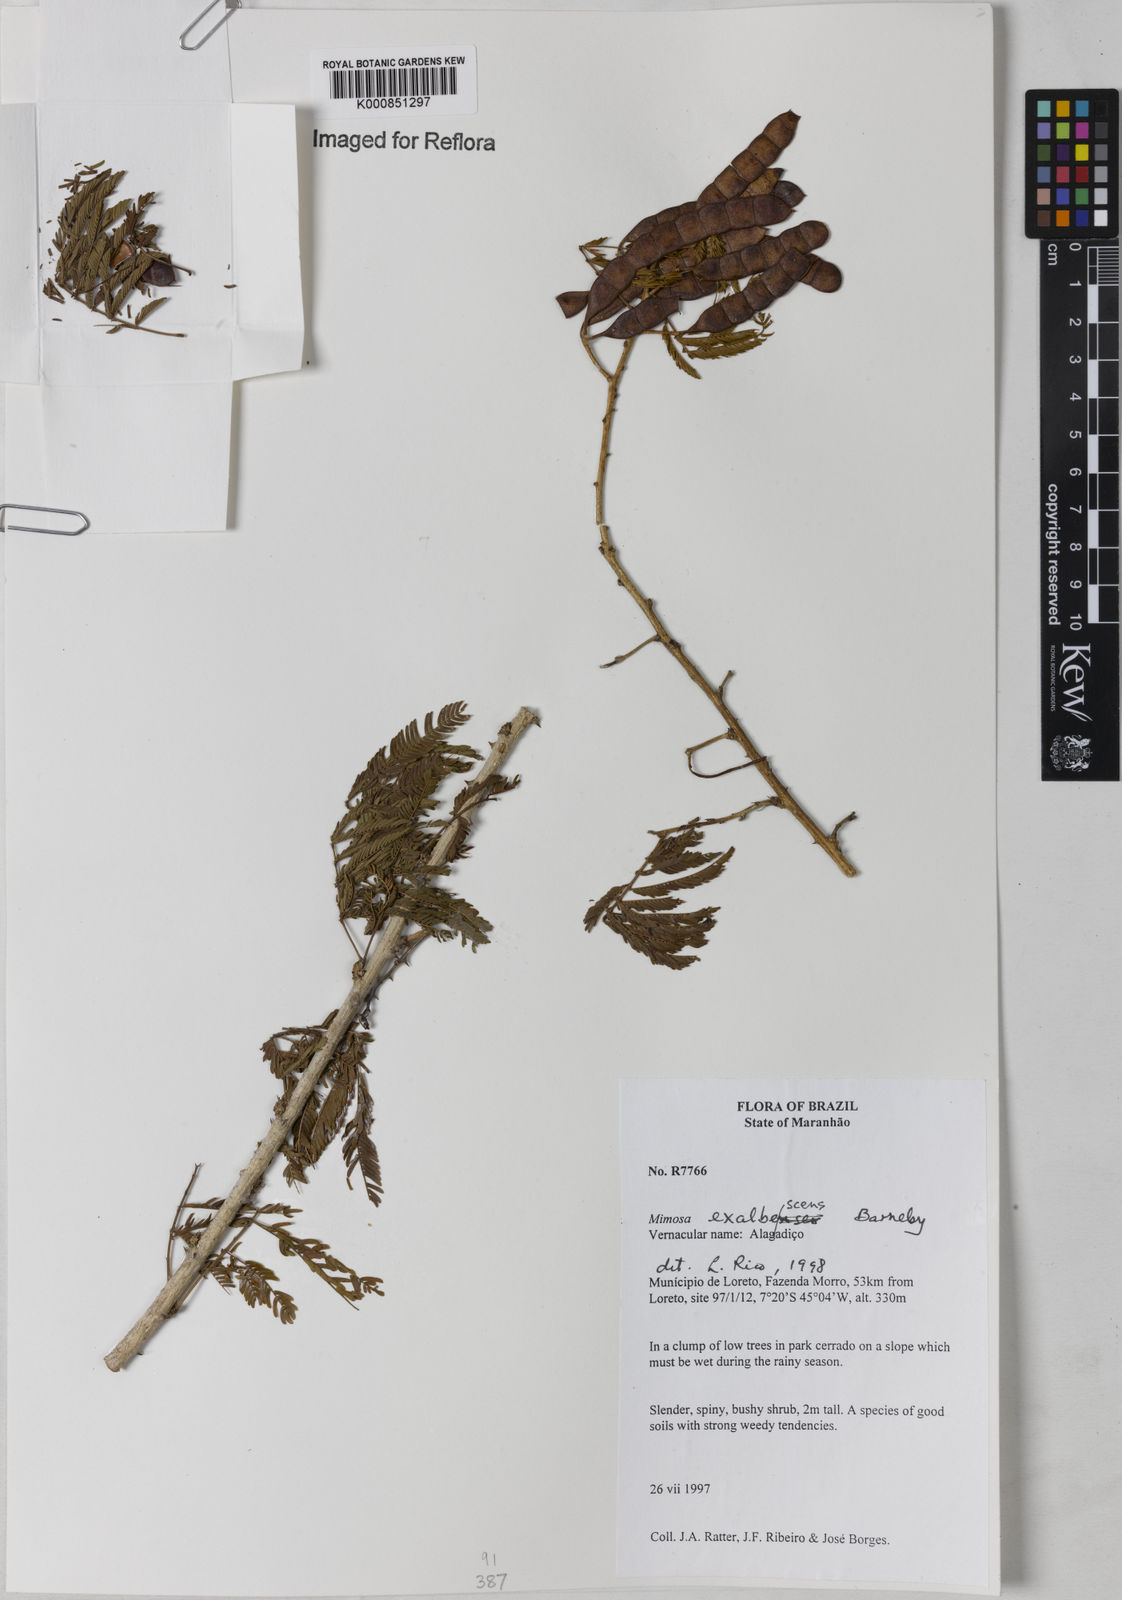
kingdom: Plantae
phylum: Tracheophyta
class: Magnoliopsida
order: Fabales
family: Fabaceae
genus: Mimosa
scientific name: Mimosa exalbescens
